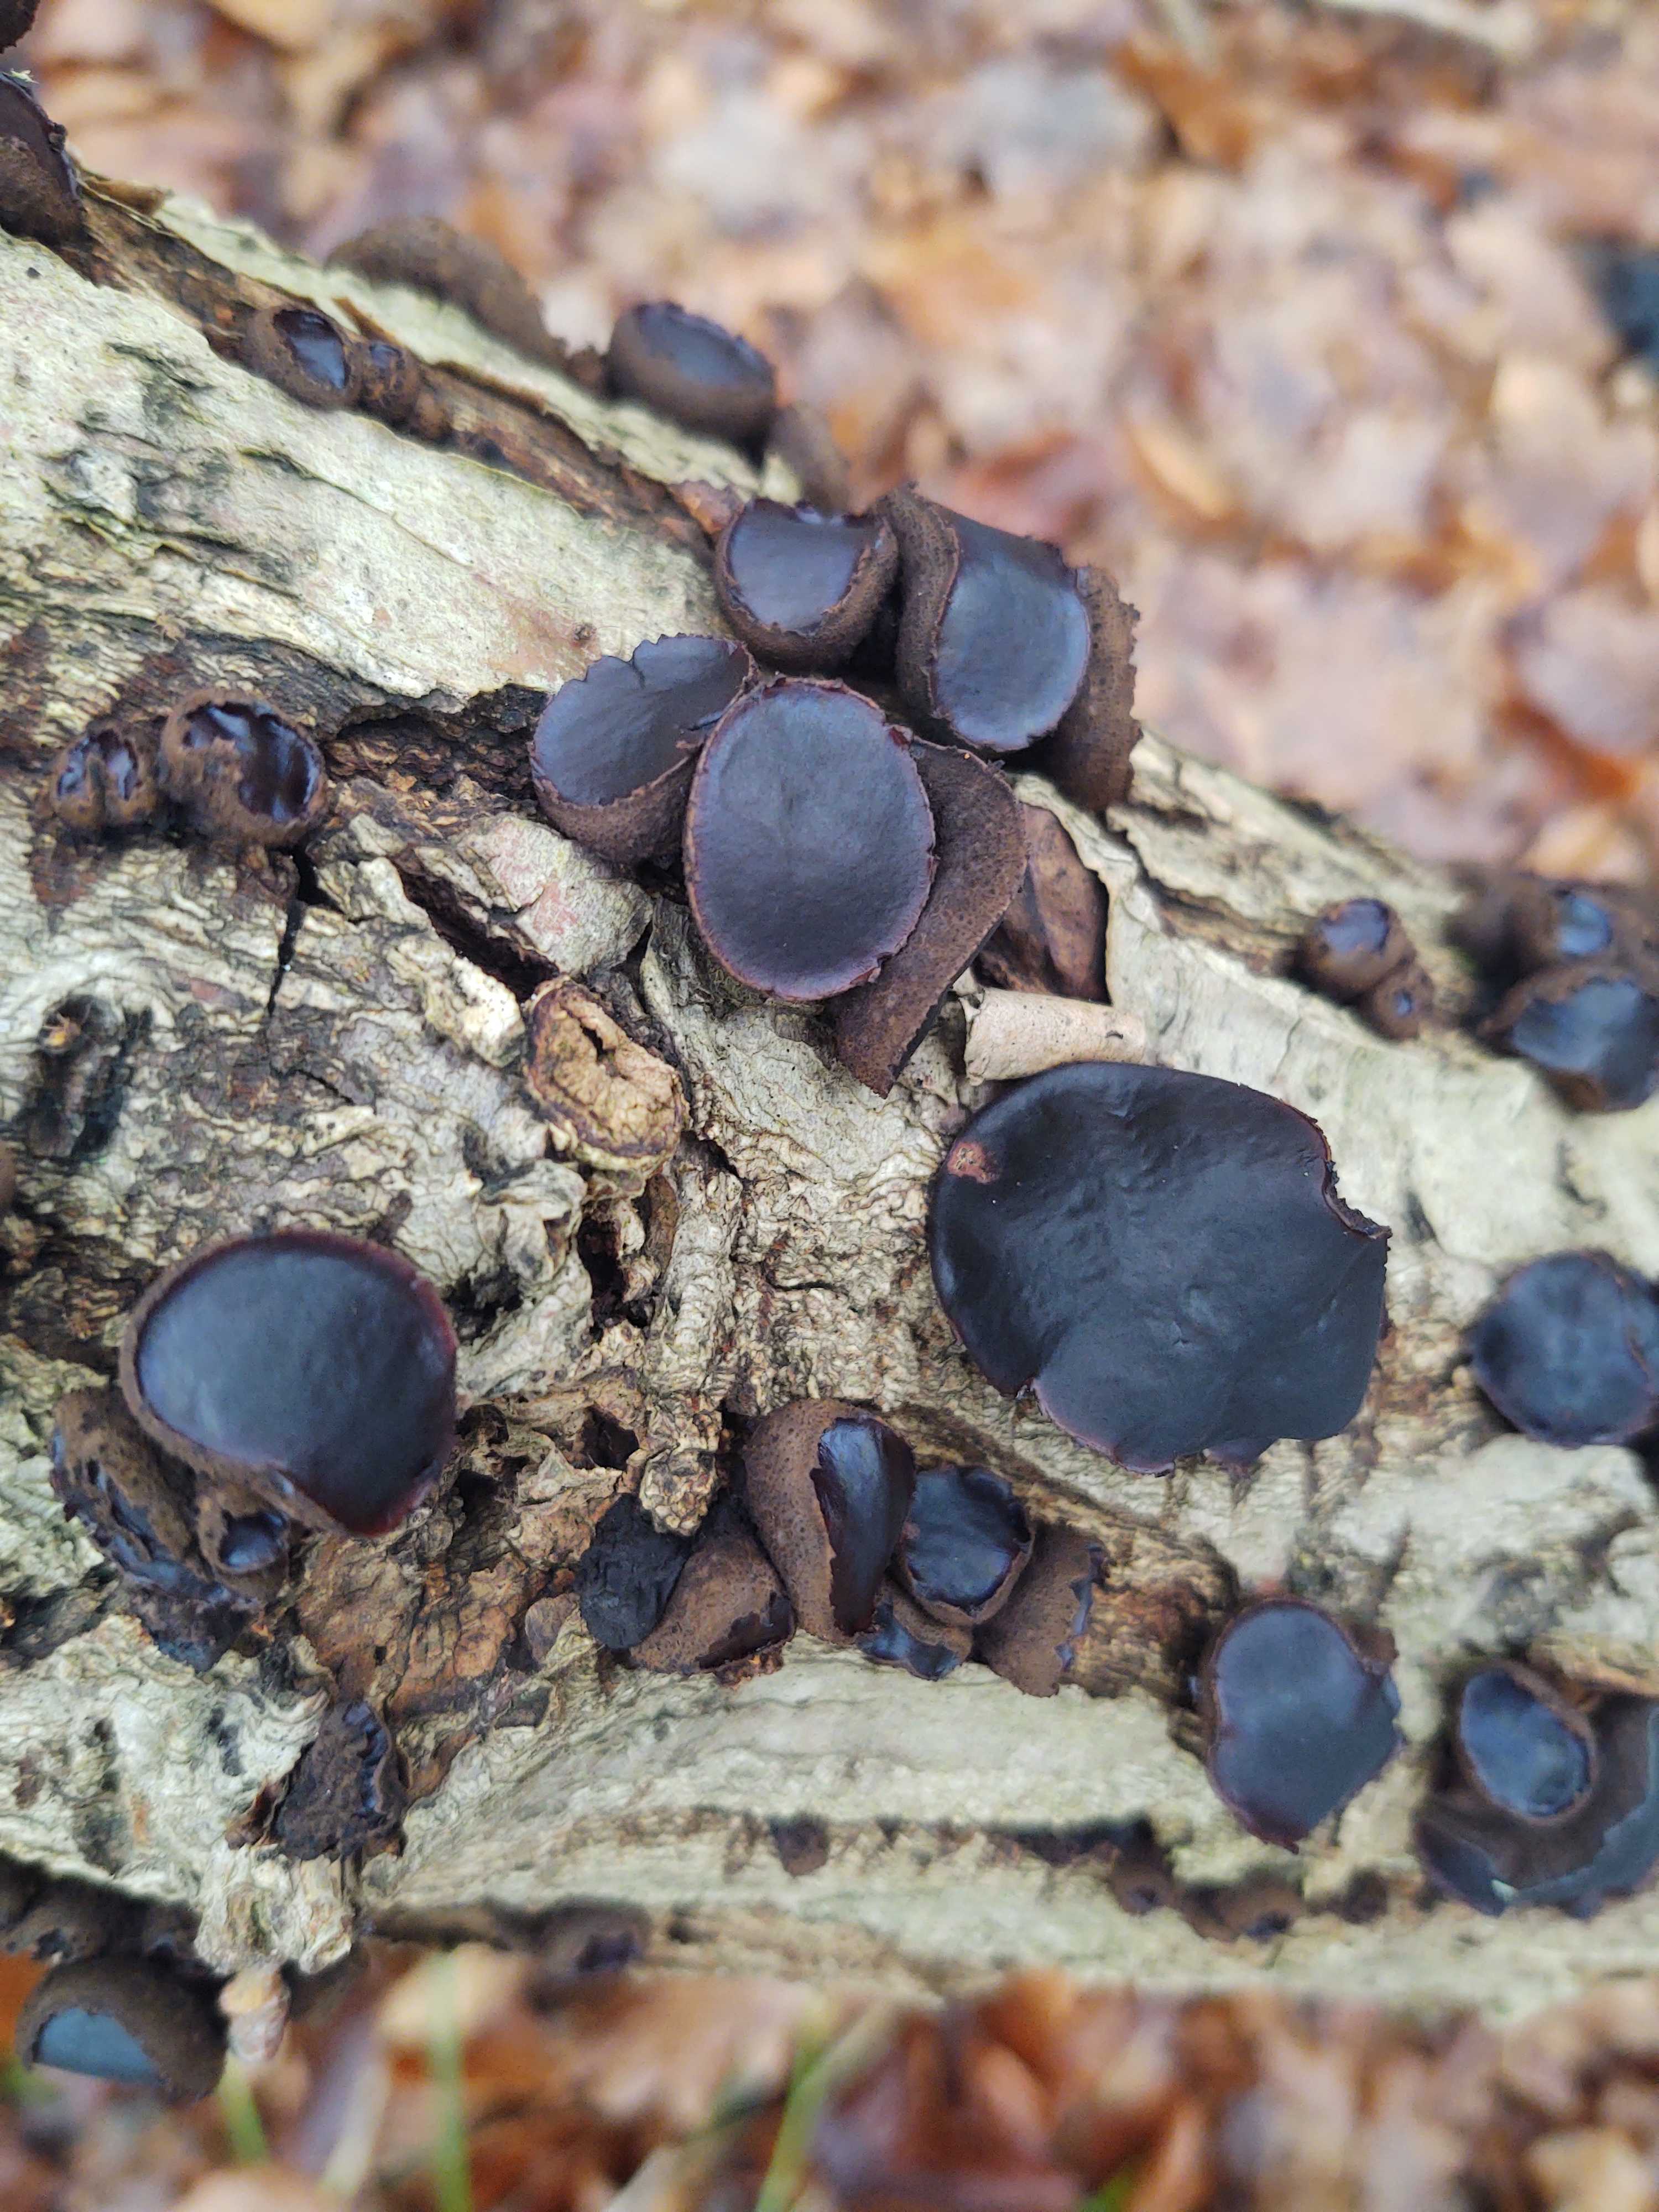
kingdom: Fungi
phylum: Ascomycota
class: Leotiomycetes
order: Phacidiales
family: Phacidiaceae
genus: Bulgaria
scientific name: Bulgaria inquinans
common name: afsmittende topsvamp
